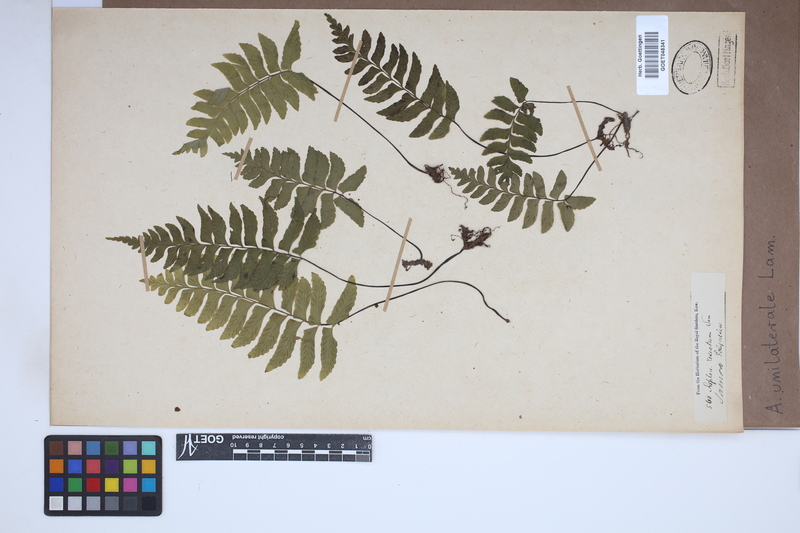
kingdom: Plantae
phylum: Tracheophyta
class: Polypodiopsida
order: Polypodiales
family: Aspleniaceae
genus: Hymenasplenium
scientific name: Hymenasplenium unilaterale
